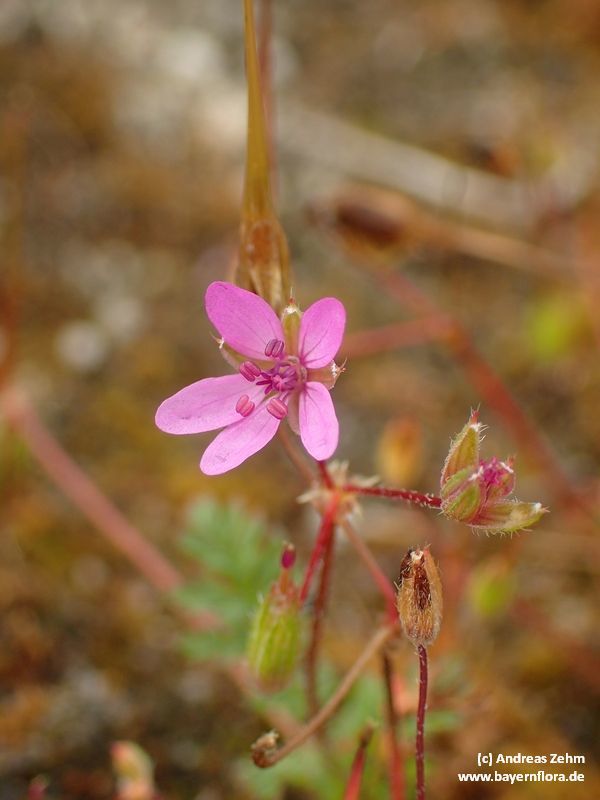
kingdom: Plantae
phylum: Tracheophyta
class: Magnoliopsida
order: Geraniales
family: Geraniaceae
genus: Erodium
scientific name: Erodium cicutarium
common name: Common stork's-bill
